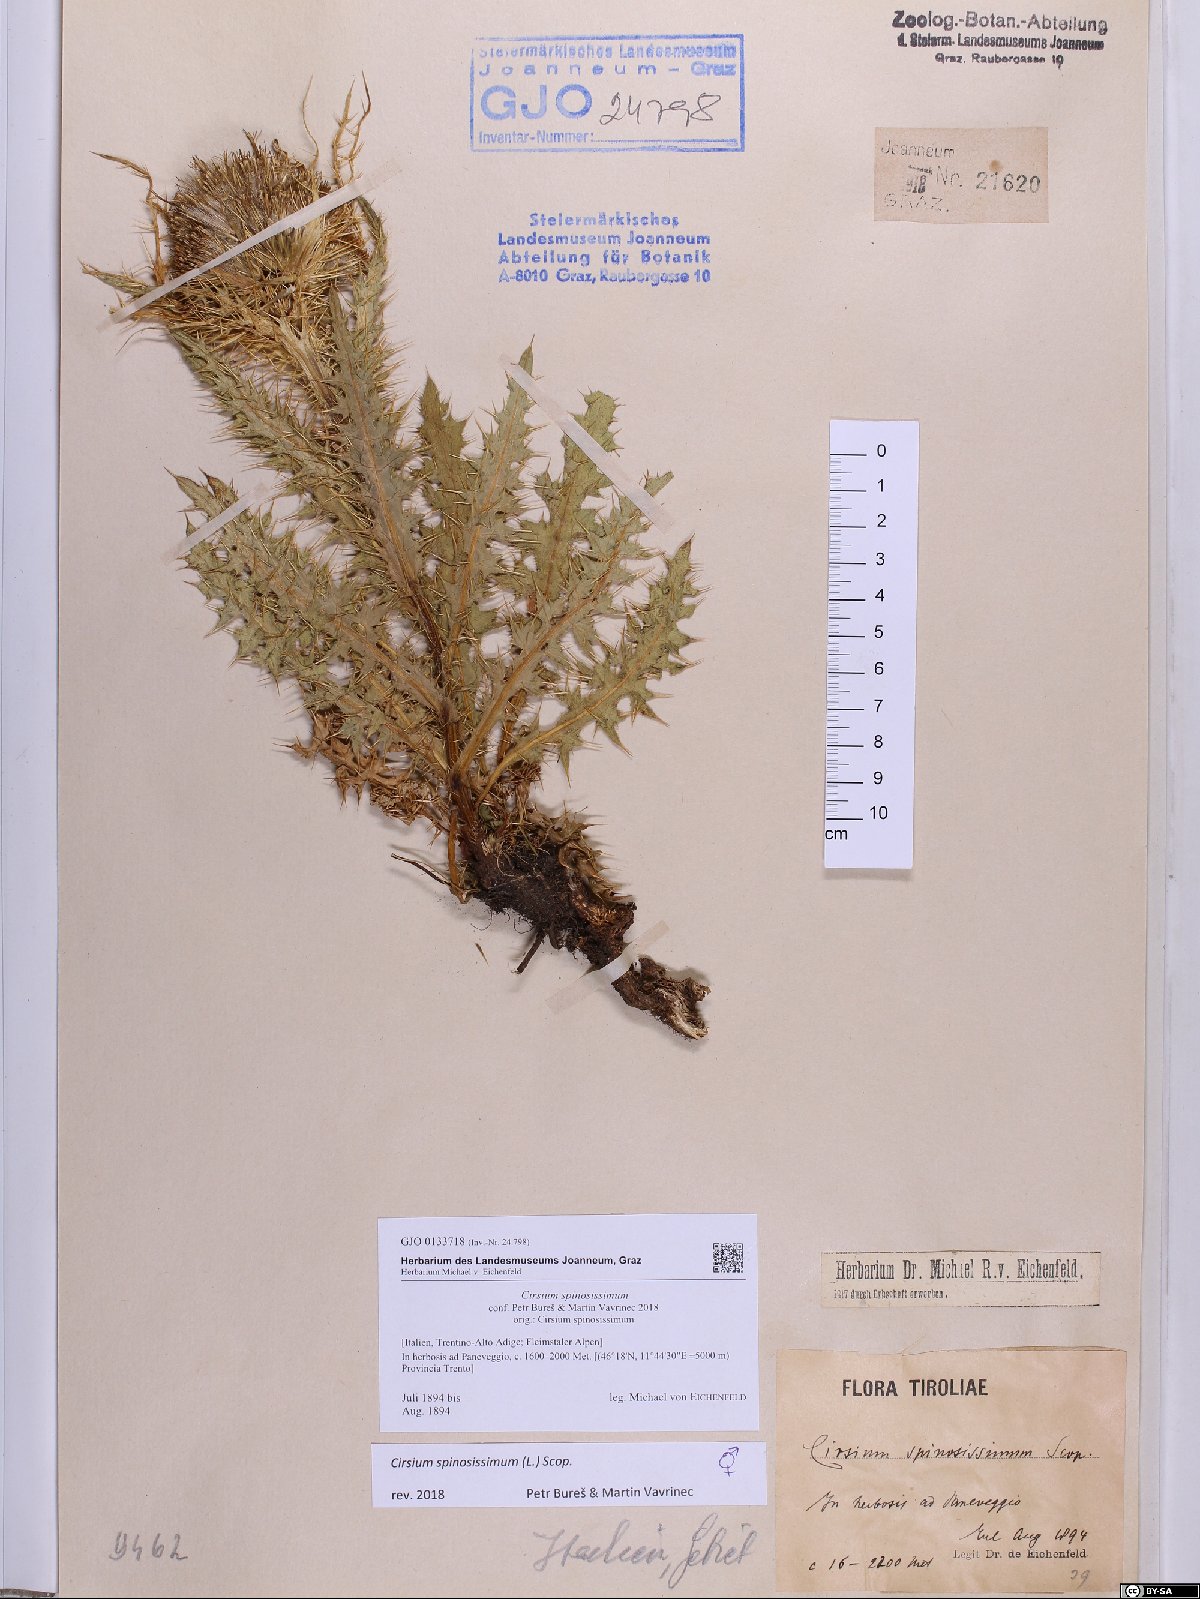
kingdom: Plantae
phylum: Tracheophyta
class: Magnoliopsida
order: Asterales
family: Asteraceae
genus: Cirsium
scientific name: Cirsium spinosissimum
